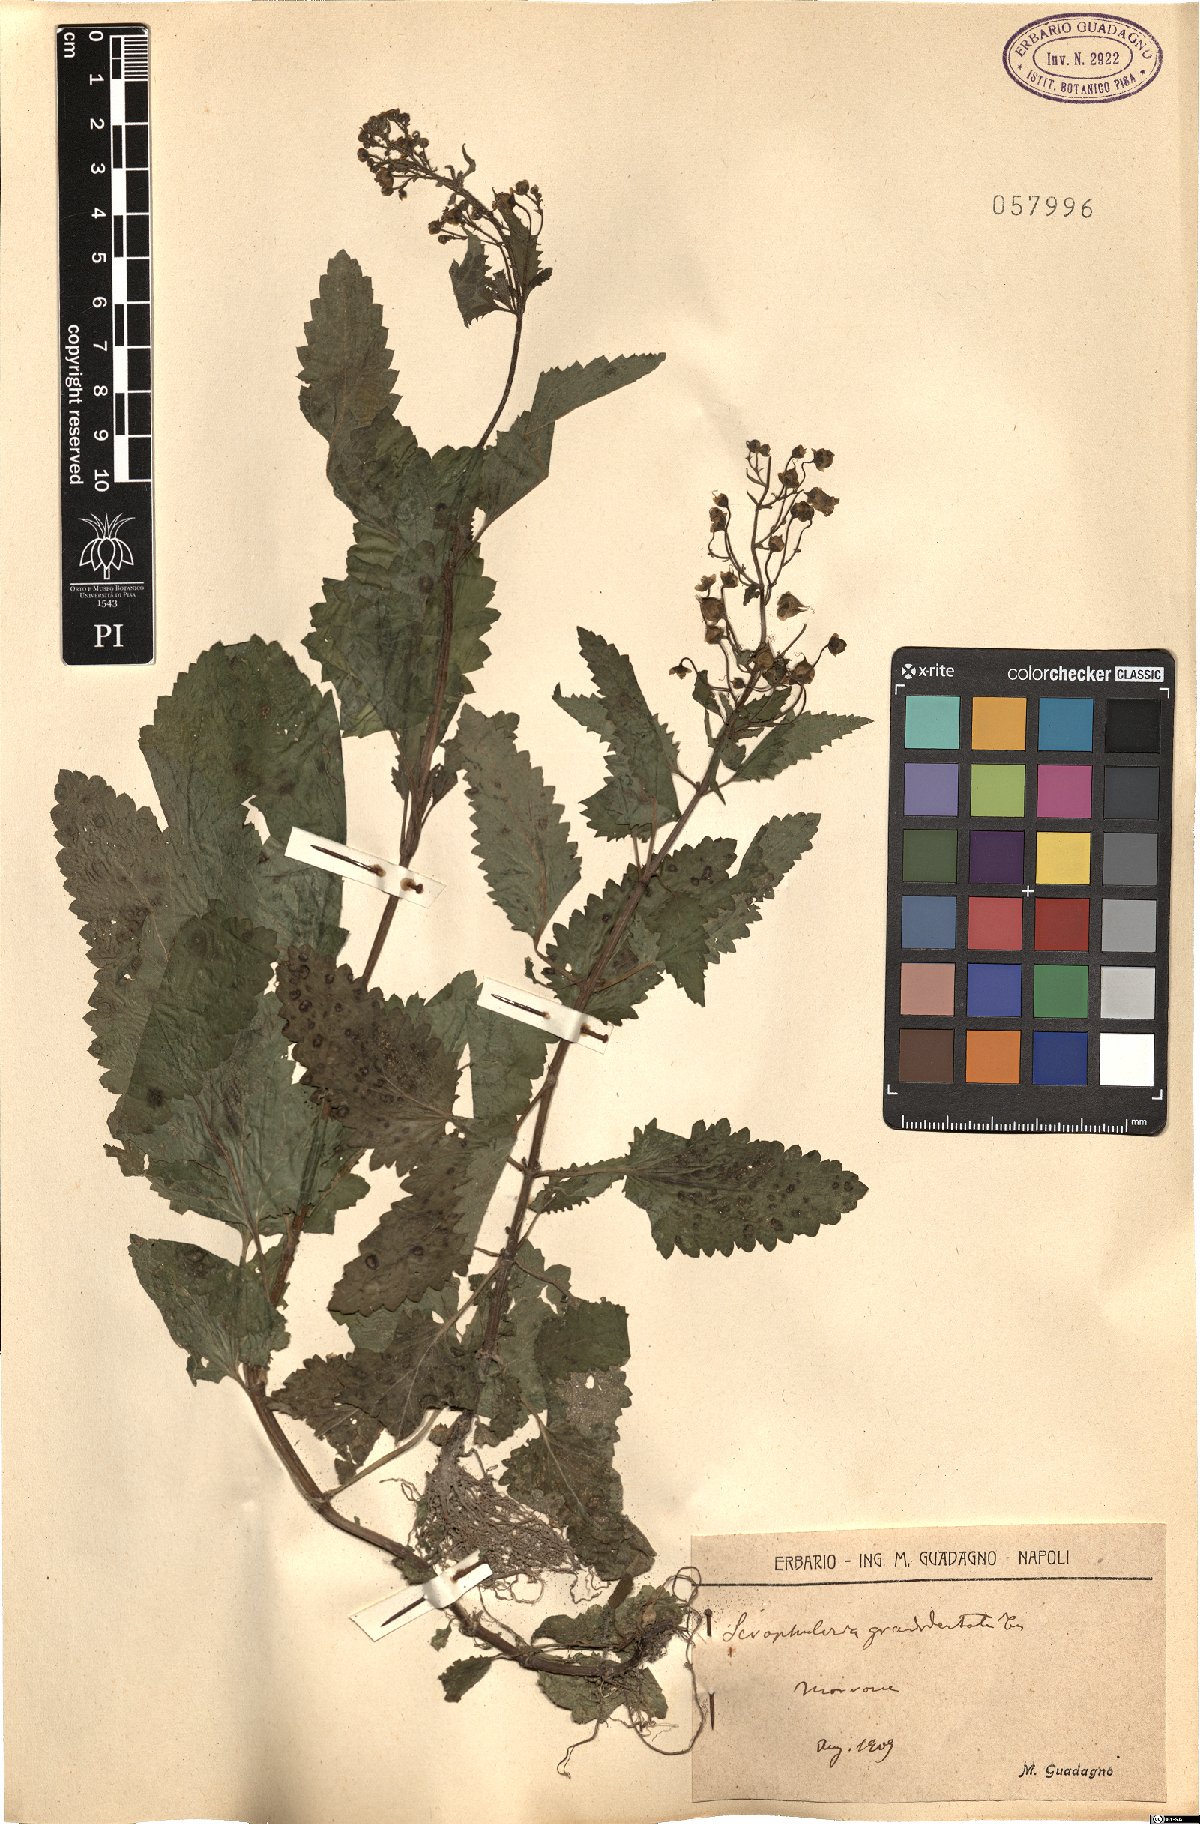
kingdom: Plantae
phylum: Tracheophyta
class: Magnoliopsida
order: Lamiales
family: Scrophulariaceae
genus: Scrophularia
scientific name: Scrophularia scopolii
